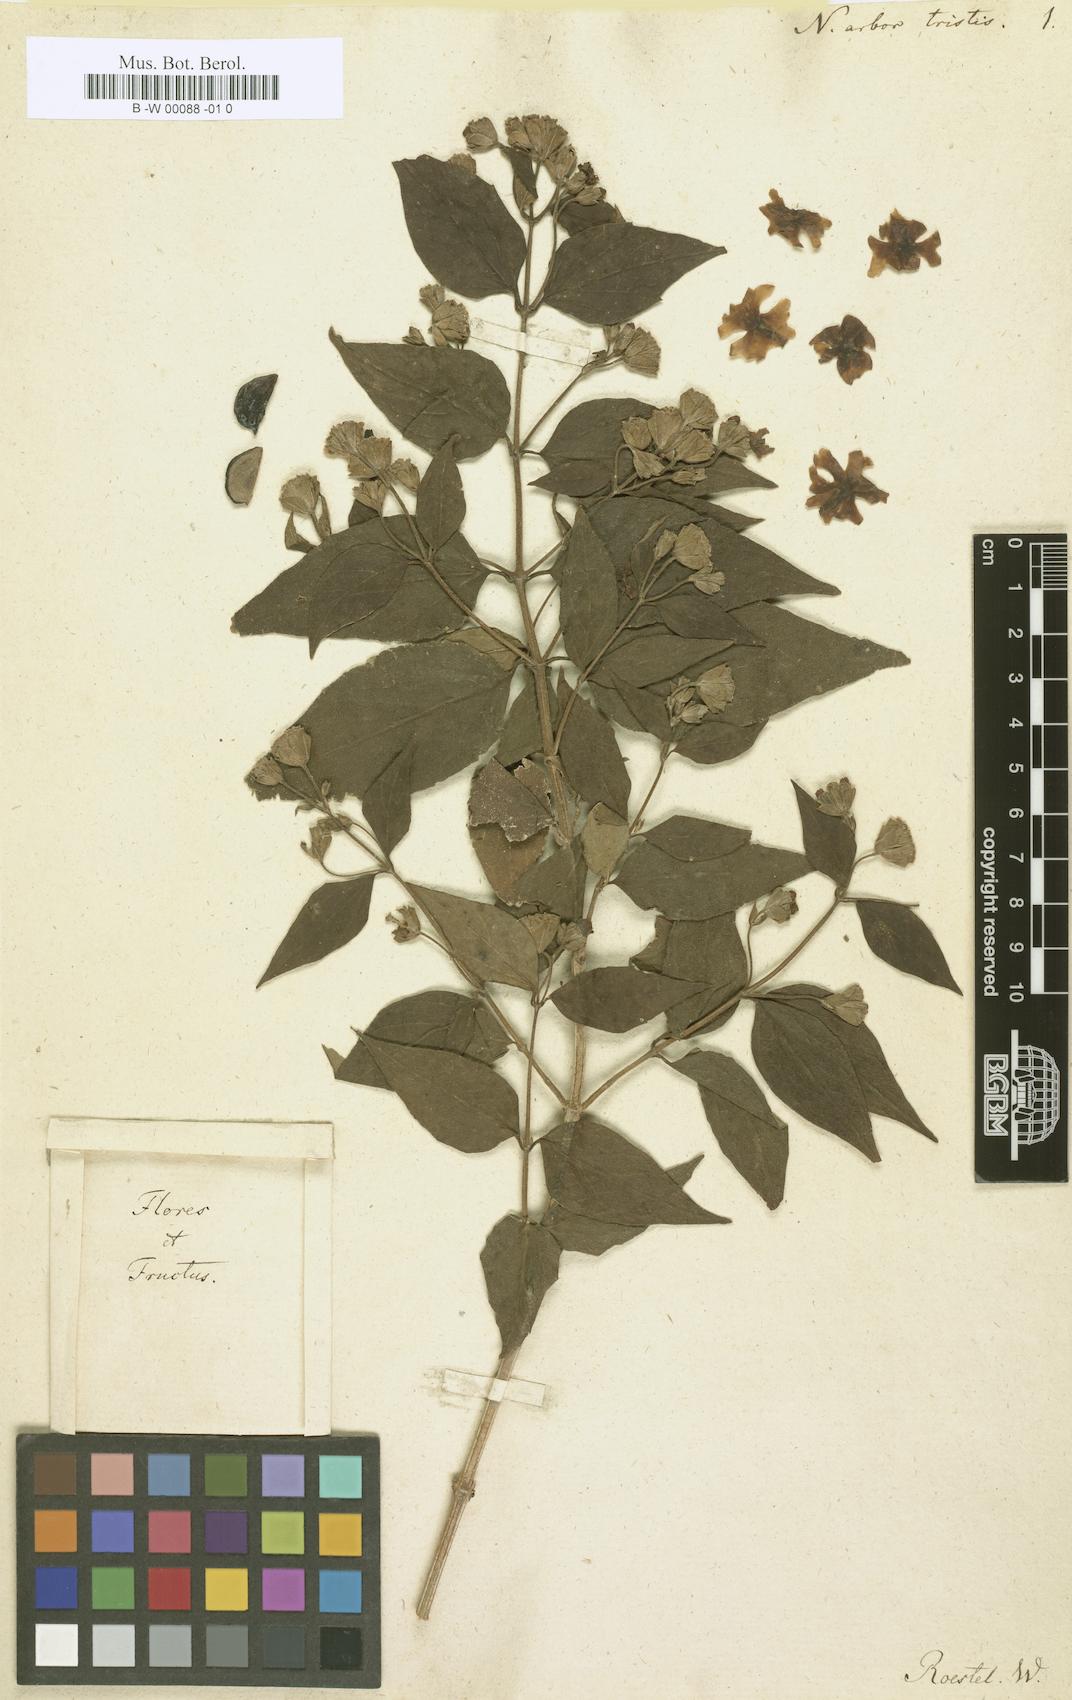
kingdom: Plantae
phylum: Tracheophyta
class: Magnoliopsida
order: Lamiales
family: Oleaceae
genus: Nyctanthes
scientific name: Nyctanthes arbor-tristis
